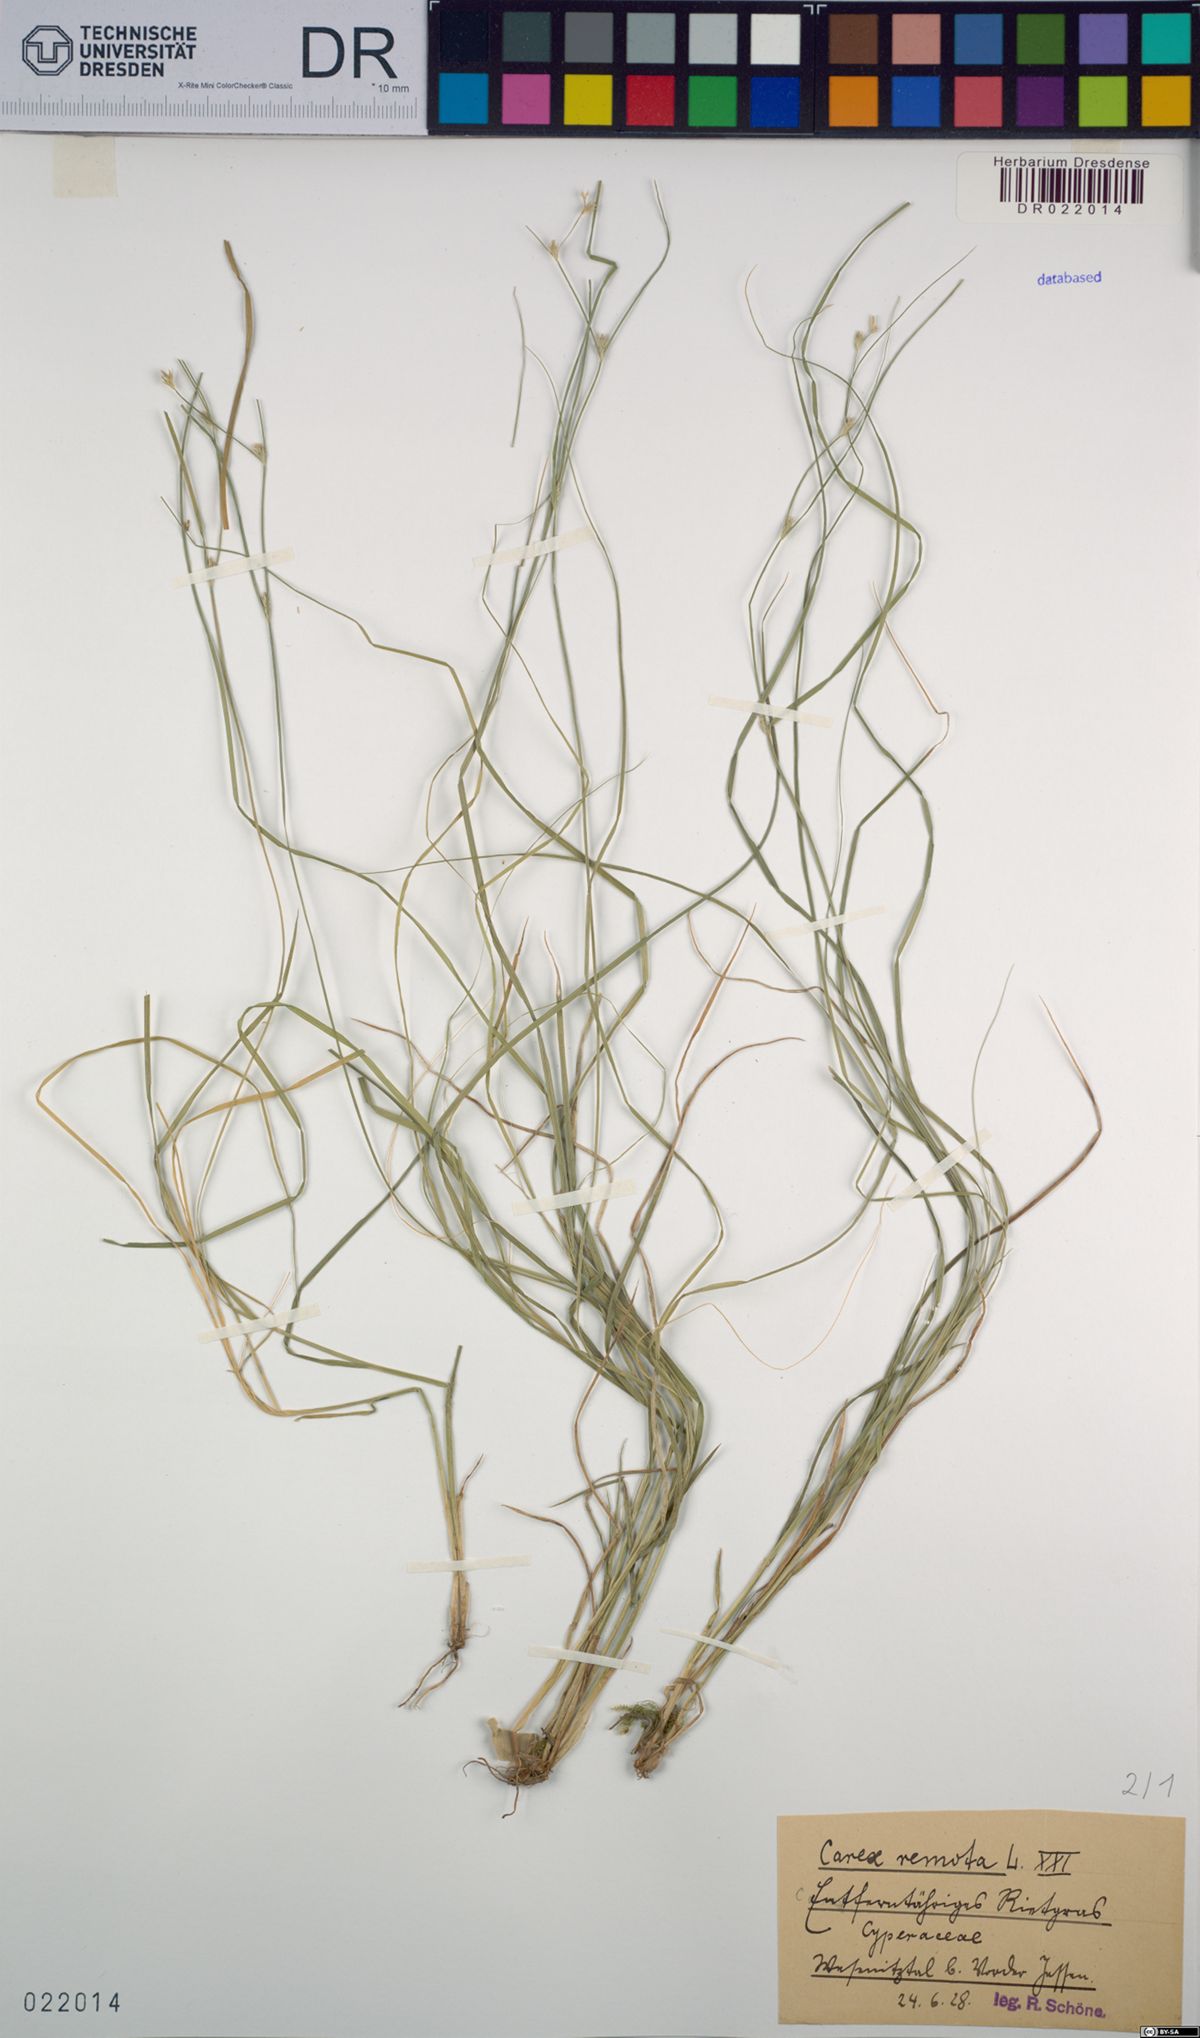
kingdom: Plantae
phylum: Tracheophyta
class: Liliopsida
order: Poales
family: Cyperaceae
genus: Carex
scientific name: Carex remota
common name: Remote sedge
